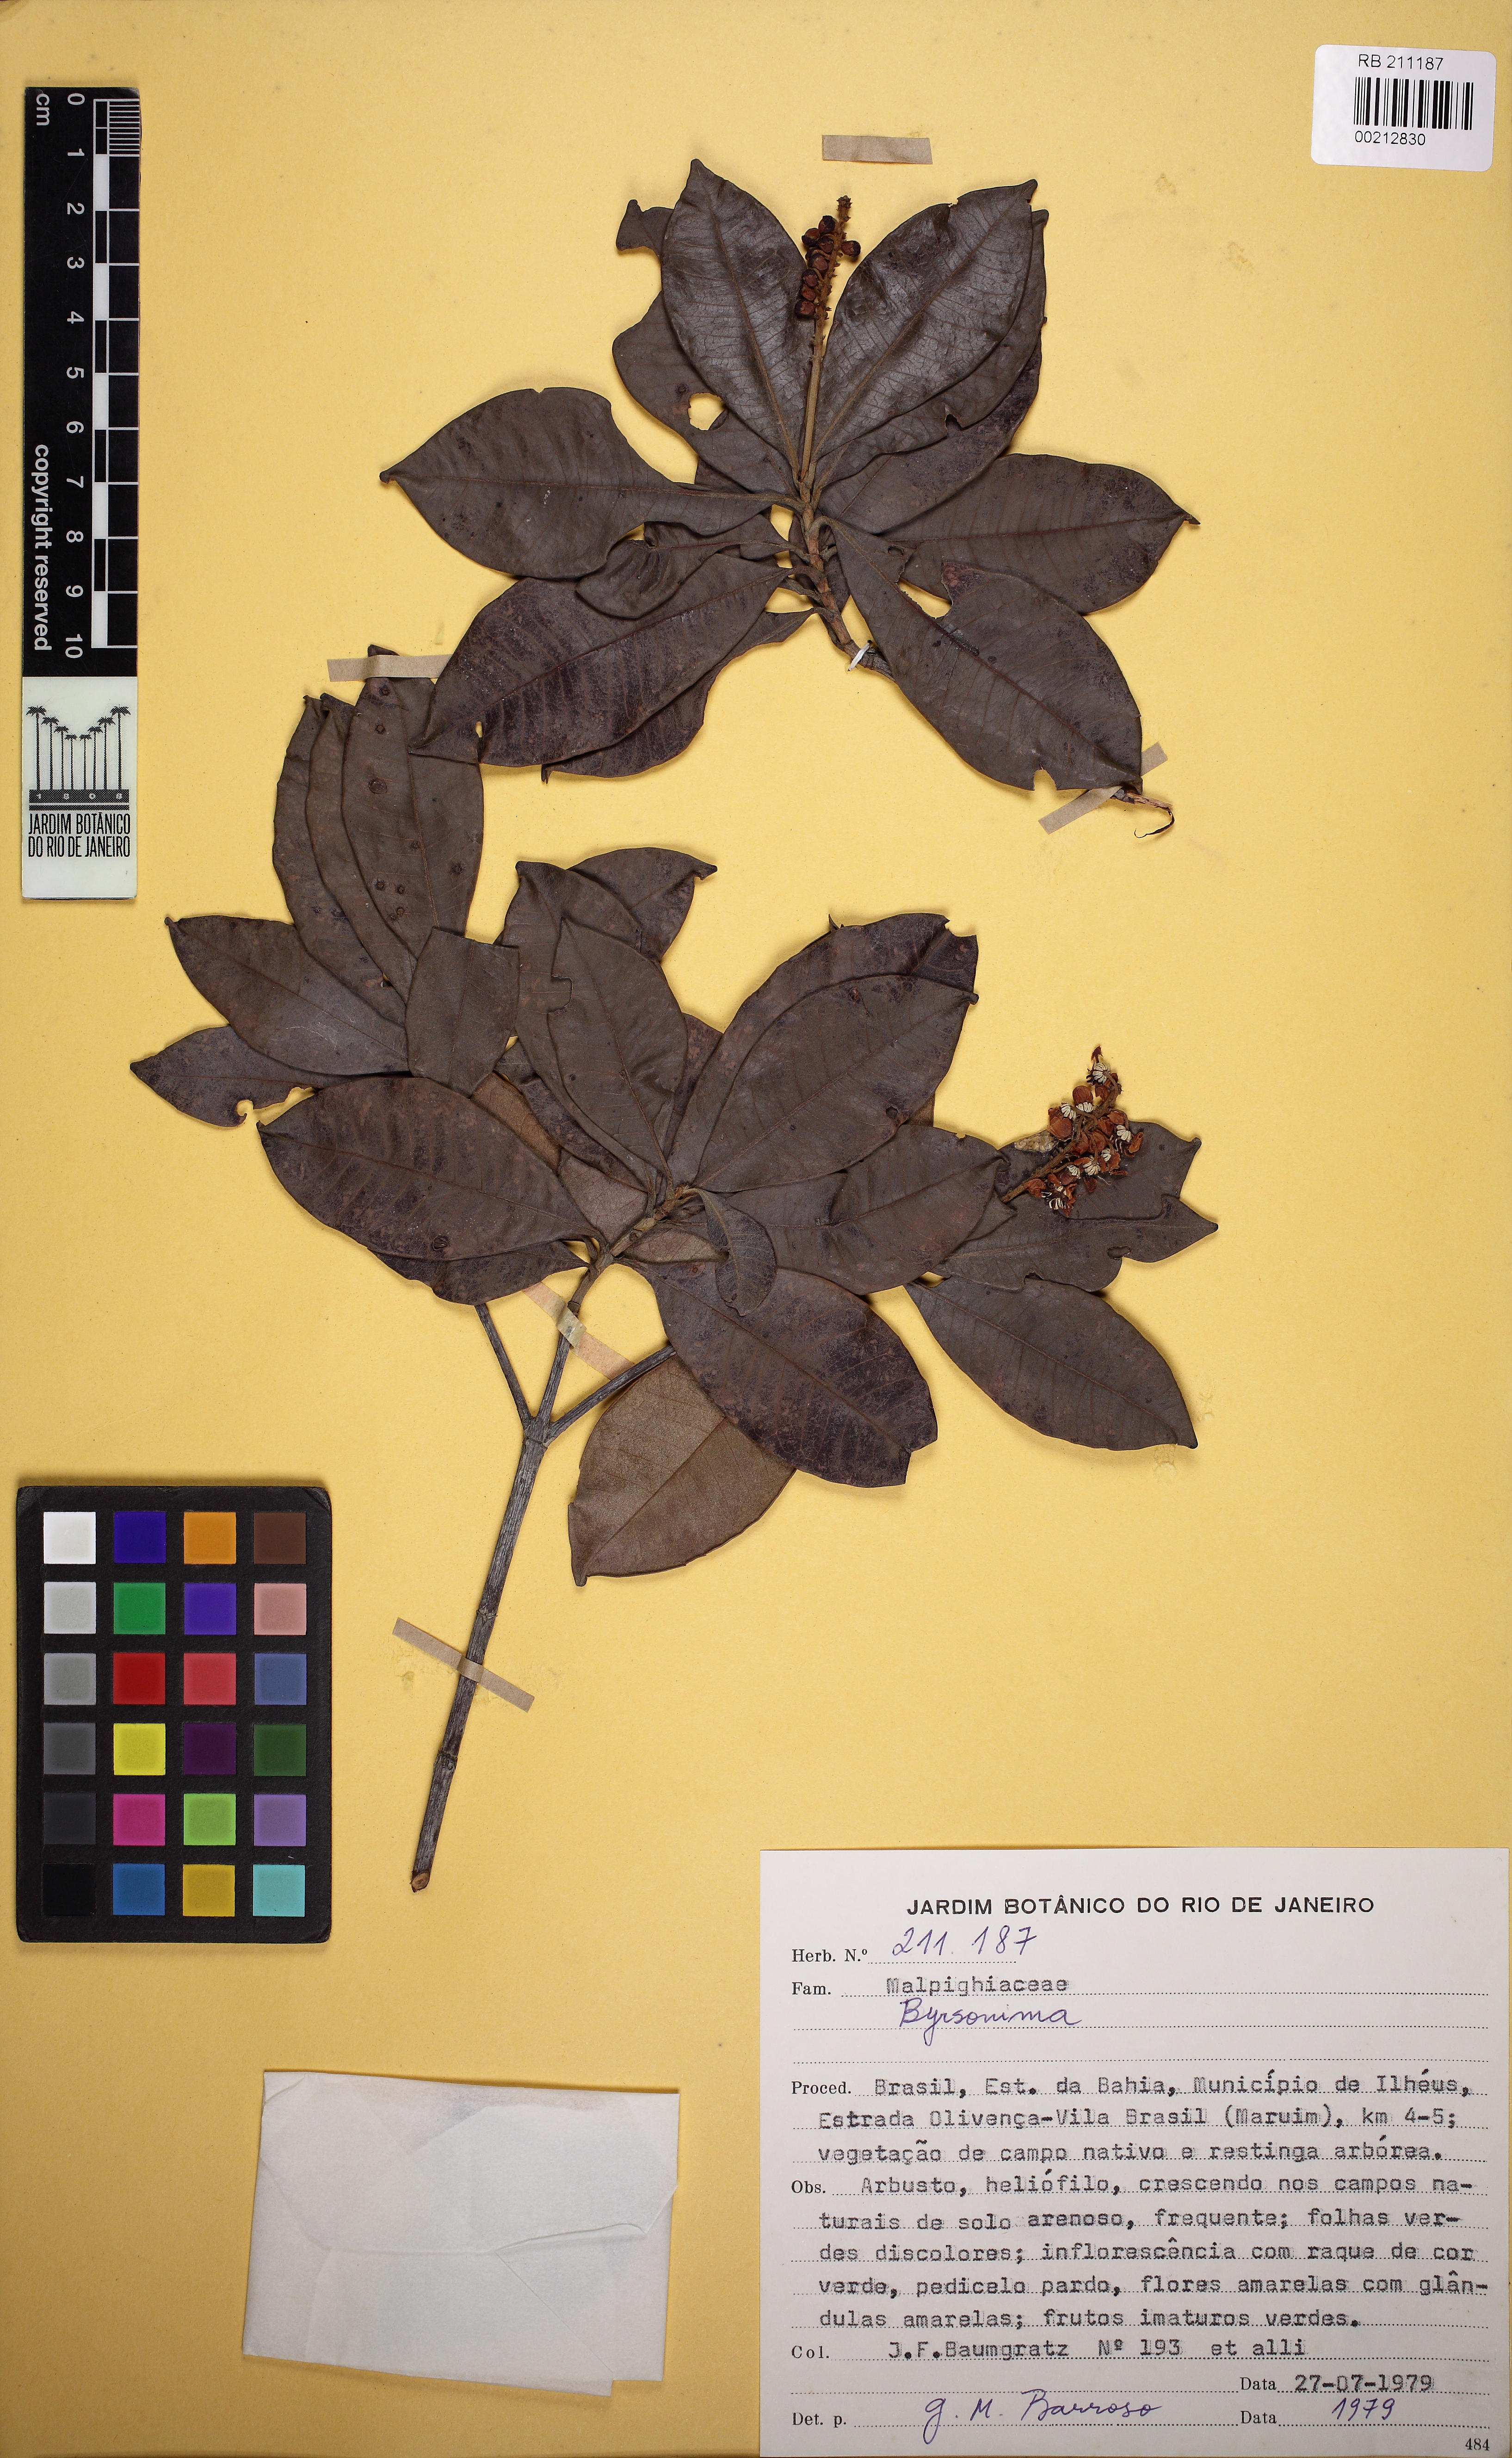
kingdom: Plantae
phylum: Tracheophyta
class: Magnoliopsida
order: Malpighiales
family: Malpighiaceae
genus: Byrsonima
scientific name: Byrsonima
